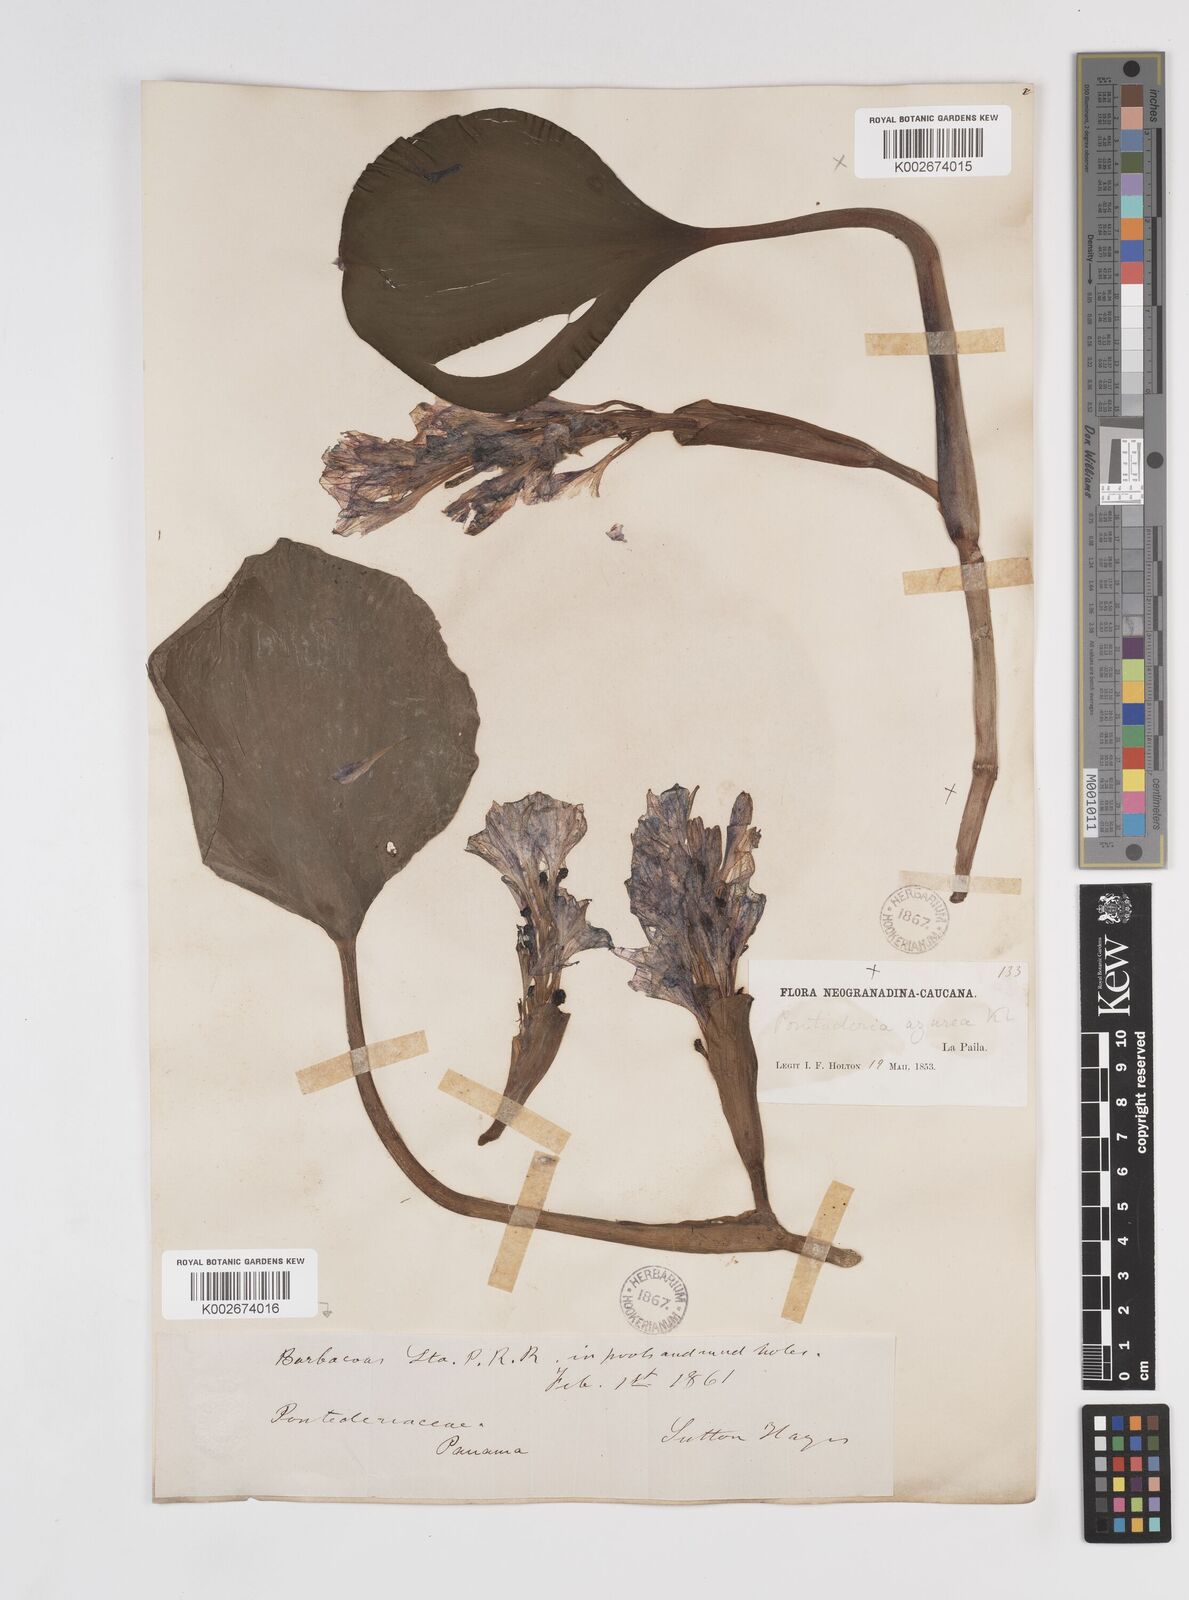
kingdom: Plantae
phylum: Tracheophyta
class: Liliopsida
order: Commelinales
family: Pontederiaceae
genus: Pontederia
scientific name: Pontederia azurea
